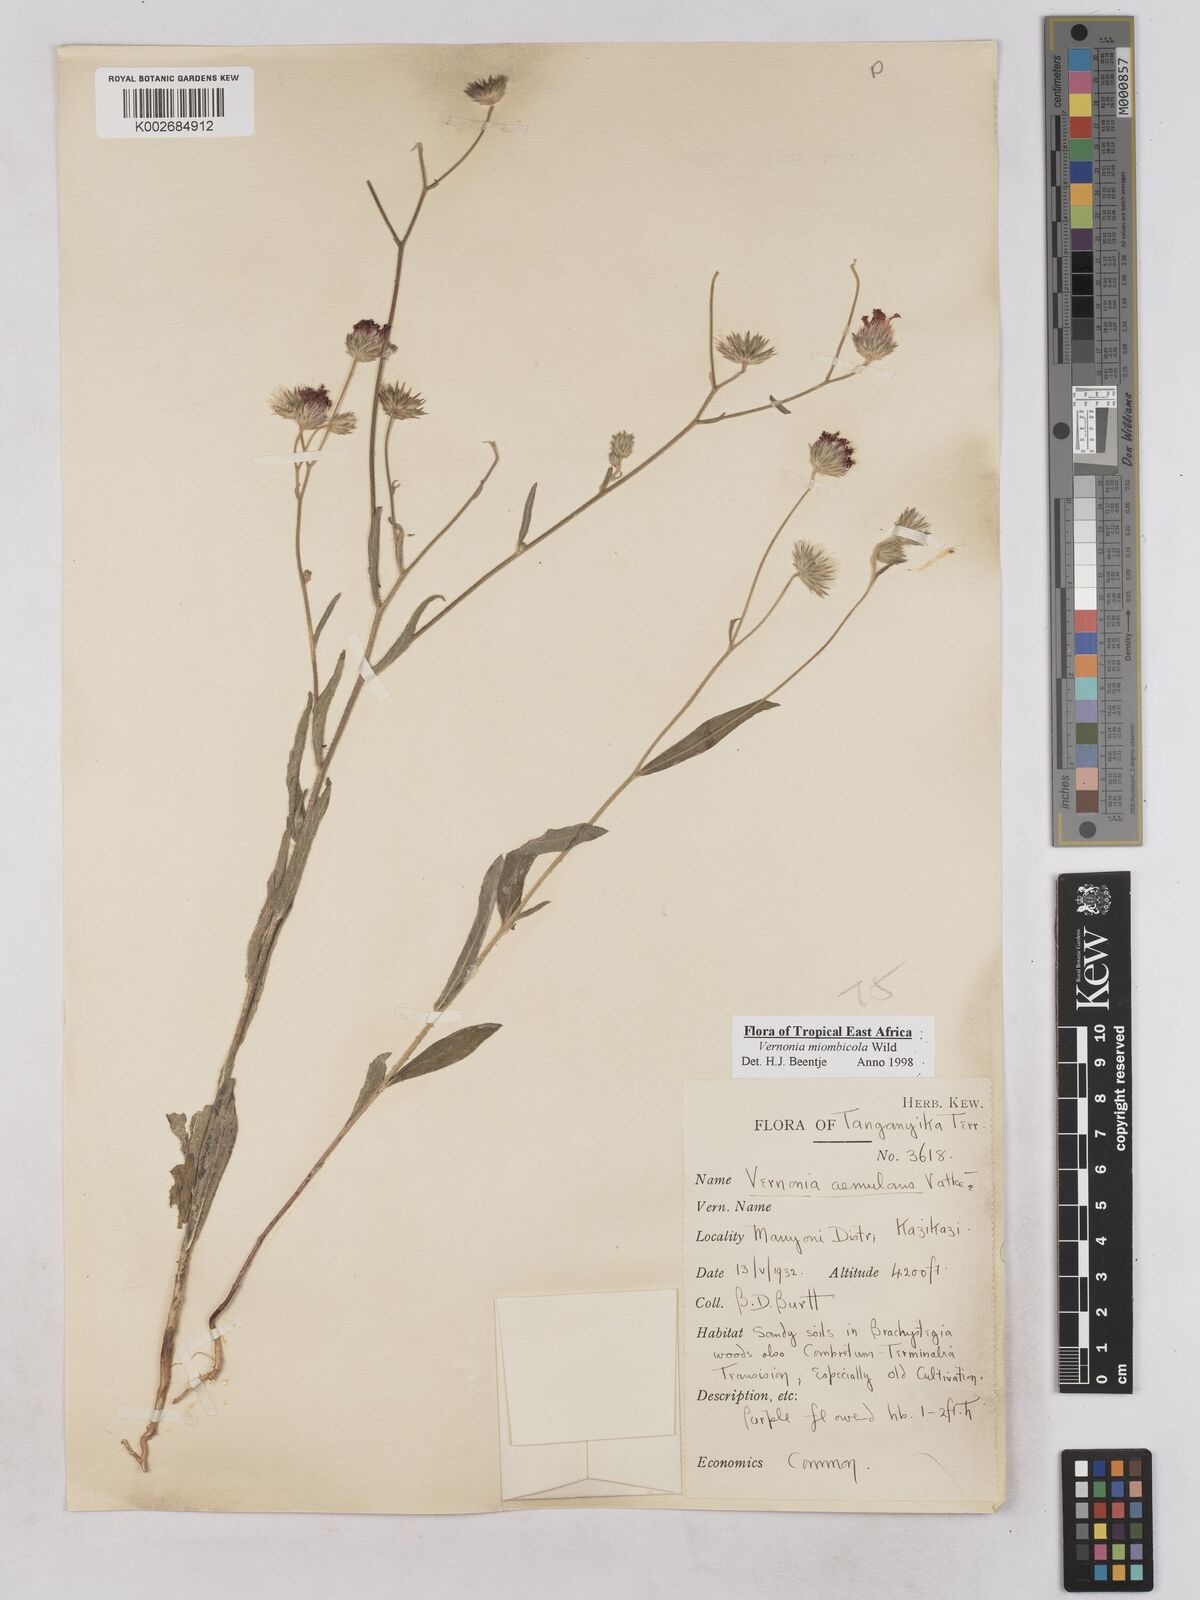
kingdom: Plantae
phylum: Tracheophyta
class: Magnoliopsida
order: Asterales
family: Asteraceae
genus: Vernonia
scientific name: Vernonia miombicola
